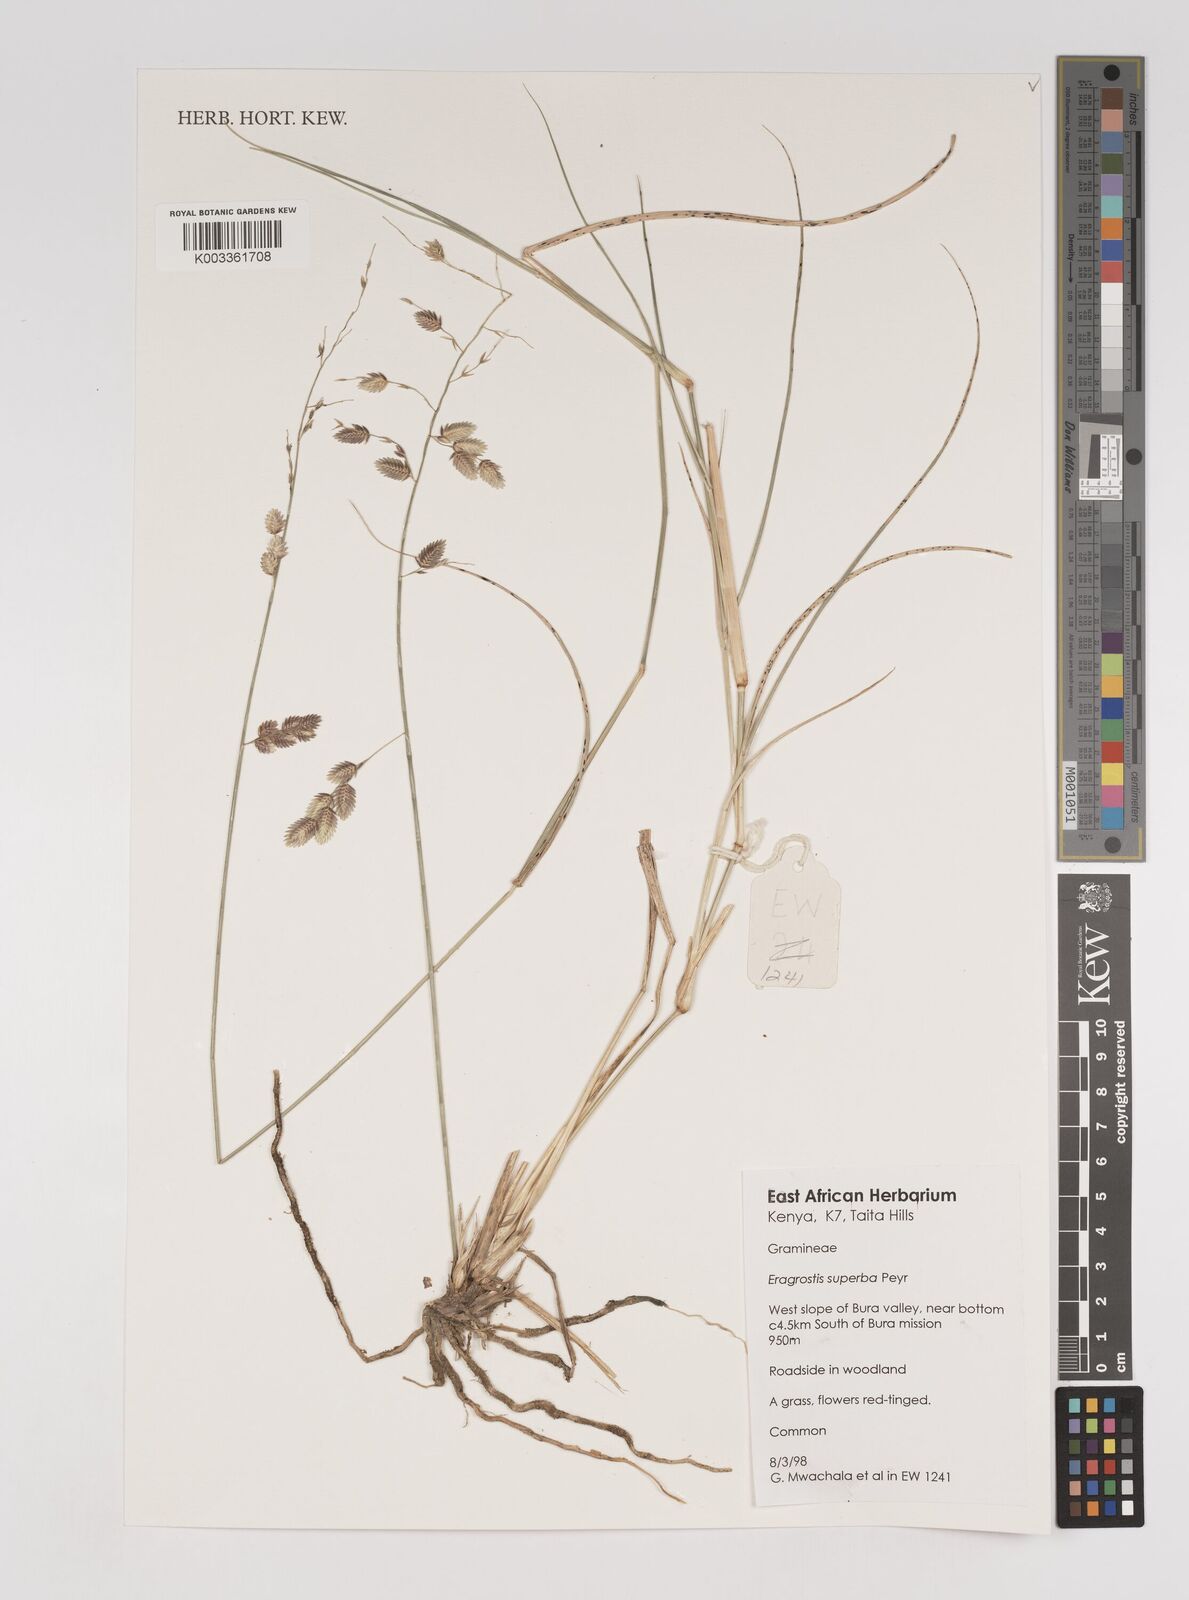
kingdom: Plantae
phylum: Tracheophyta
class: Liliopsida
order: Poales
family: Poaceae
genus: Eragrostis
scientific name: Eragrostis superba
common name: Wilman lovegrass
